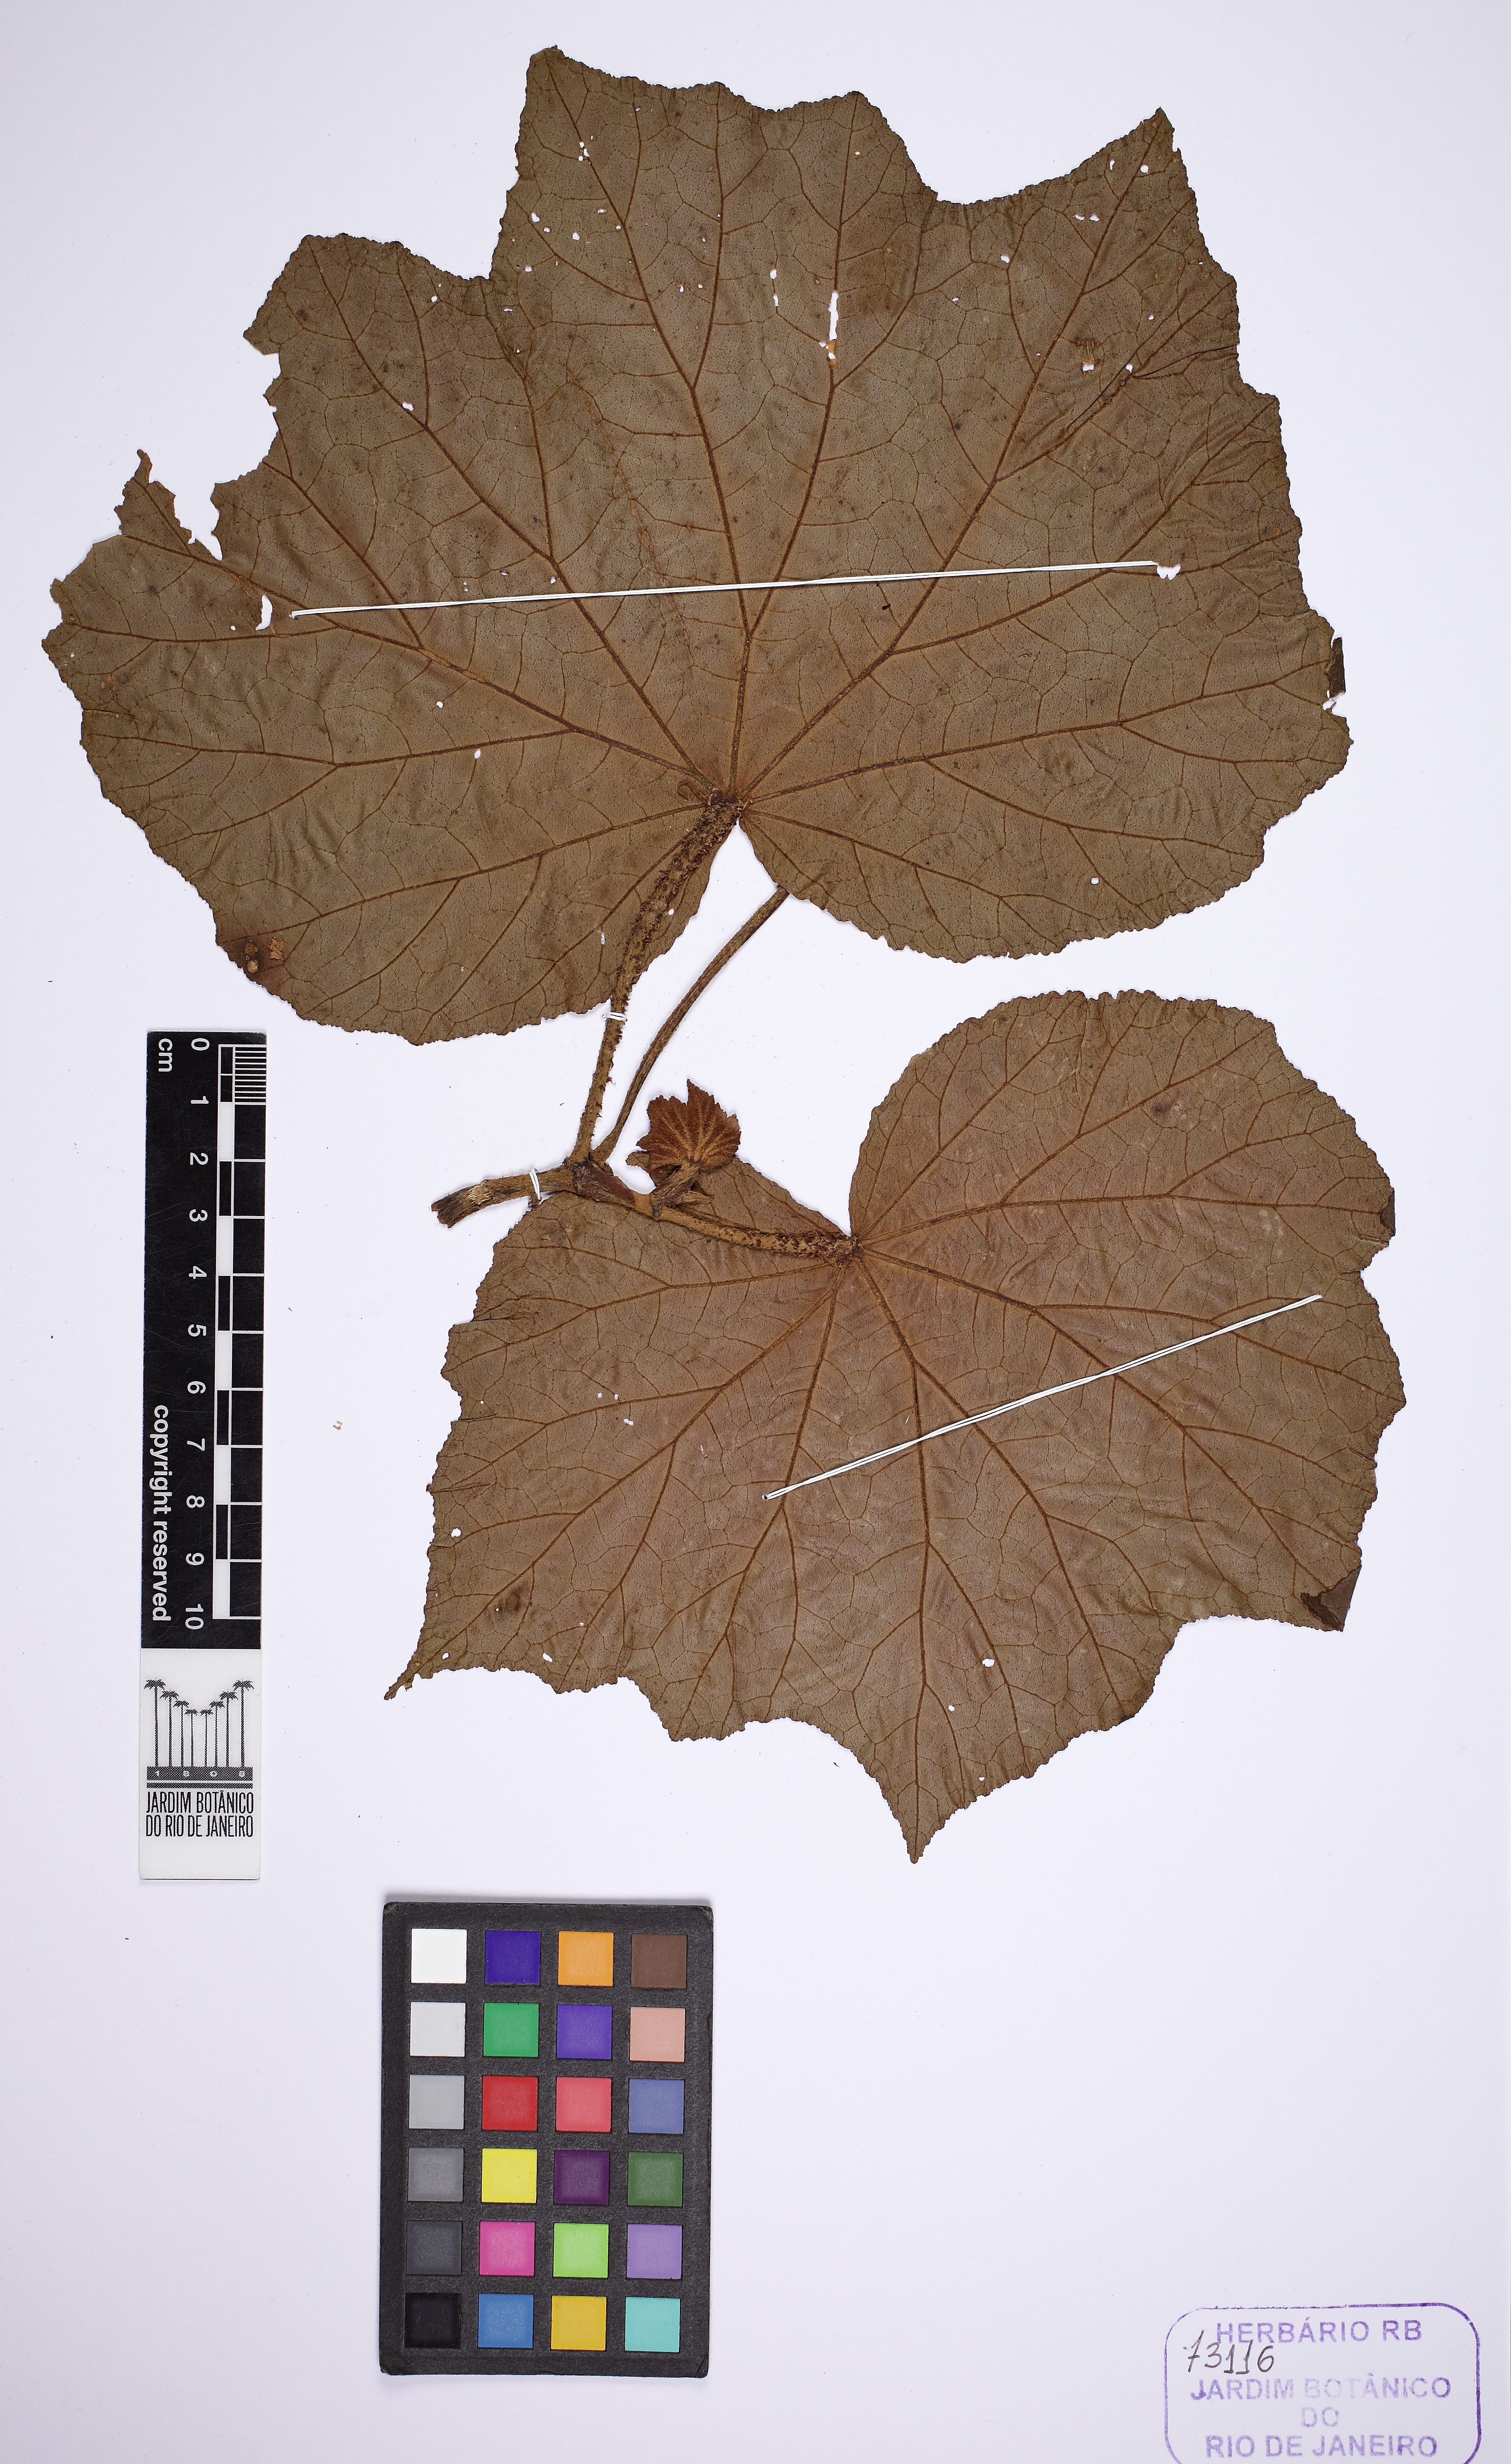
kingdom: Plantae
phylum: Tracheophyta
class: Magnoliopsida
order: Cucurbitales
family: Begoniaceae
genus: Begonia
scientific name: Begonia paleata
